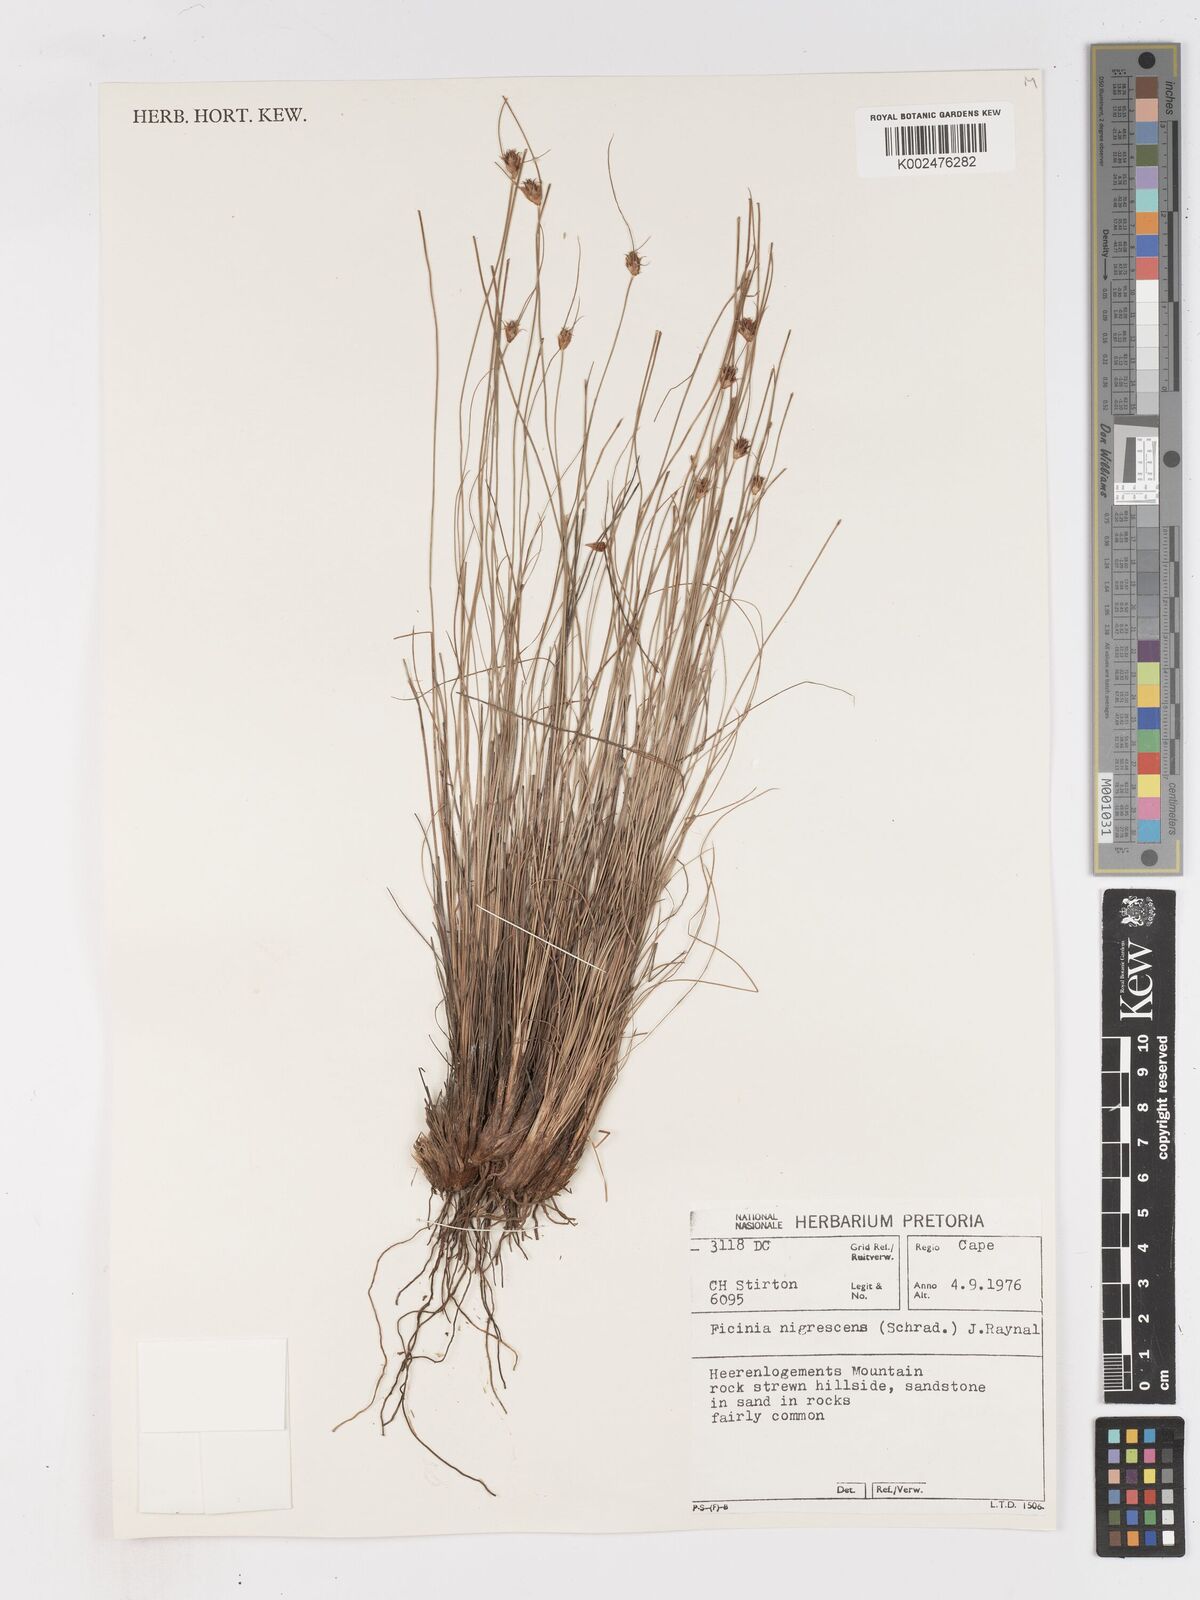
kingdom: Plantae
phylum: Tracheophyta
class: Liliopsida
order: Poales
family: Cyperaceae
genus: Ficinia
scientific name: Ficinia nigrescens
